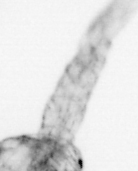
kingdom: Animalia
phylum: Arthropoda
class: Copepoda
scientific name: Copepoda
